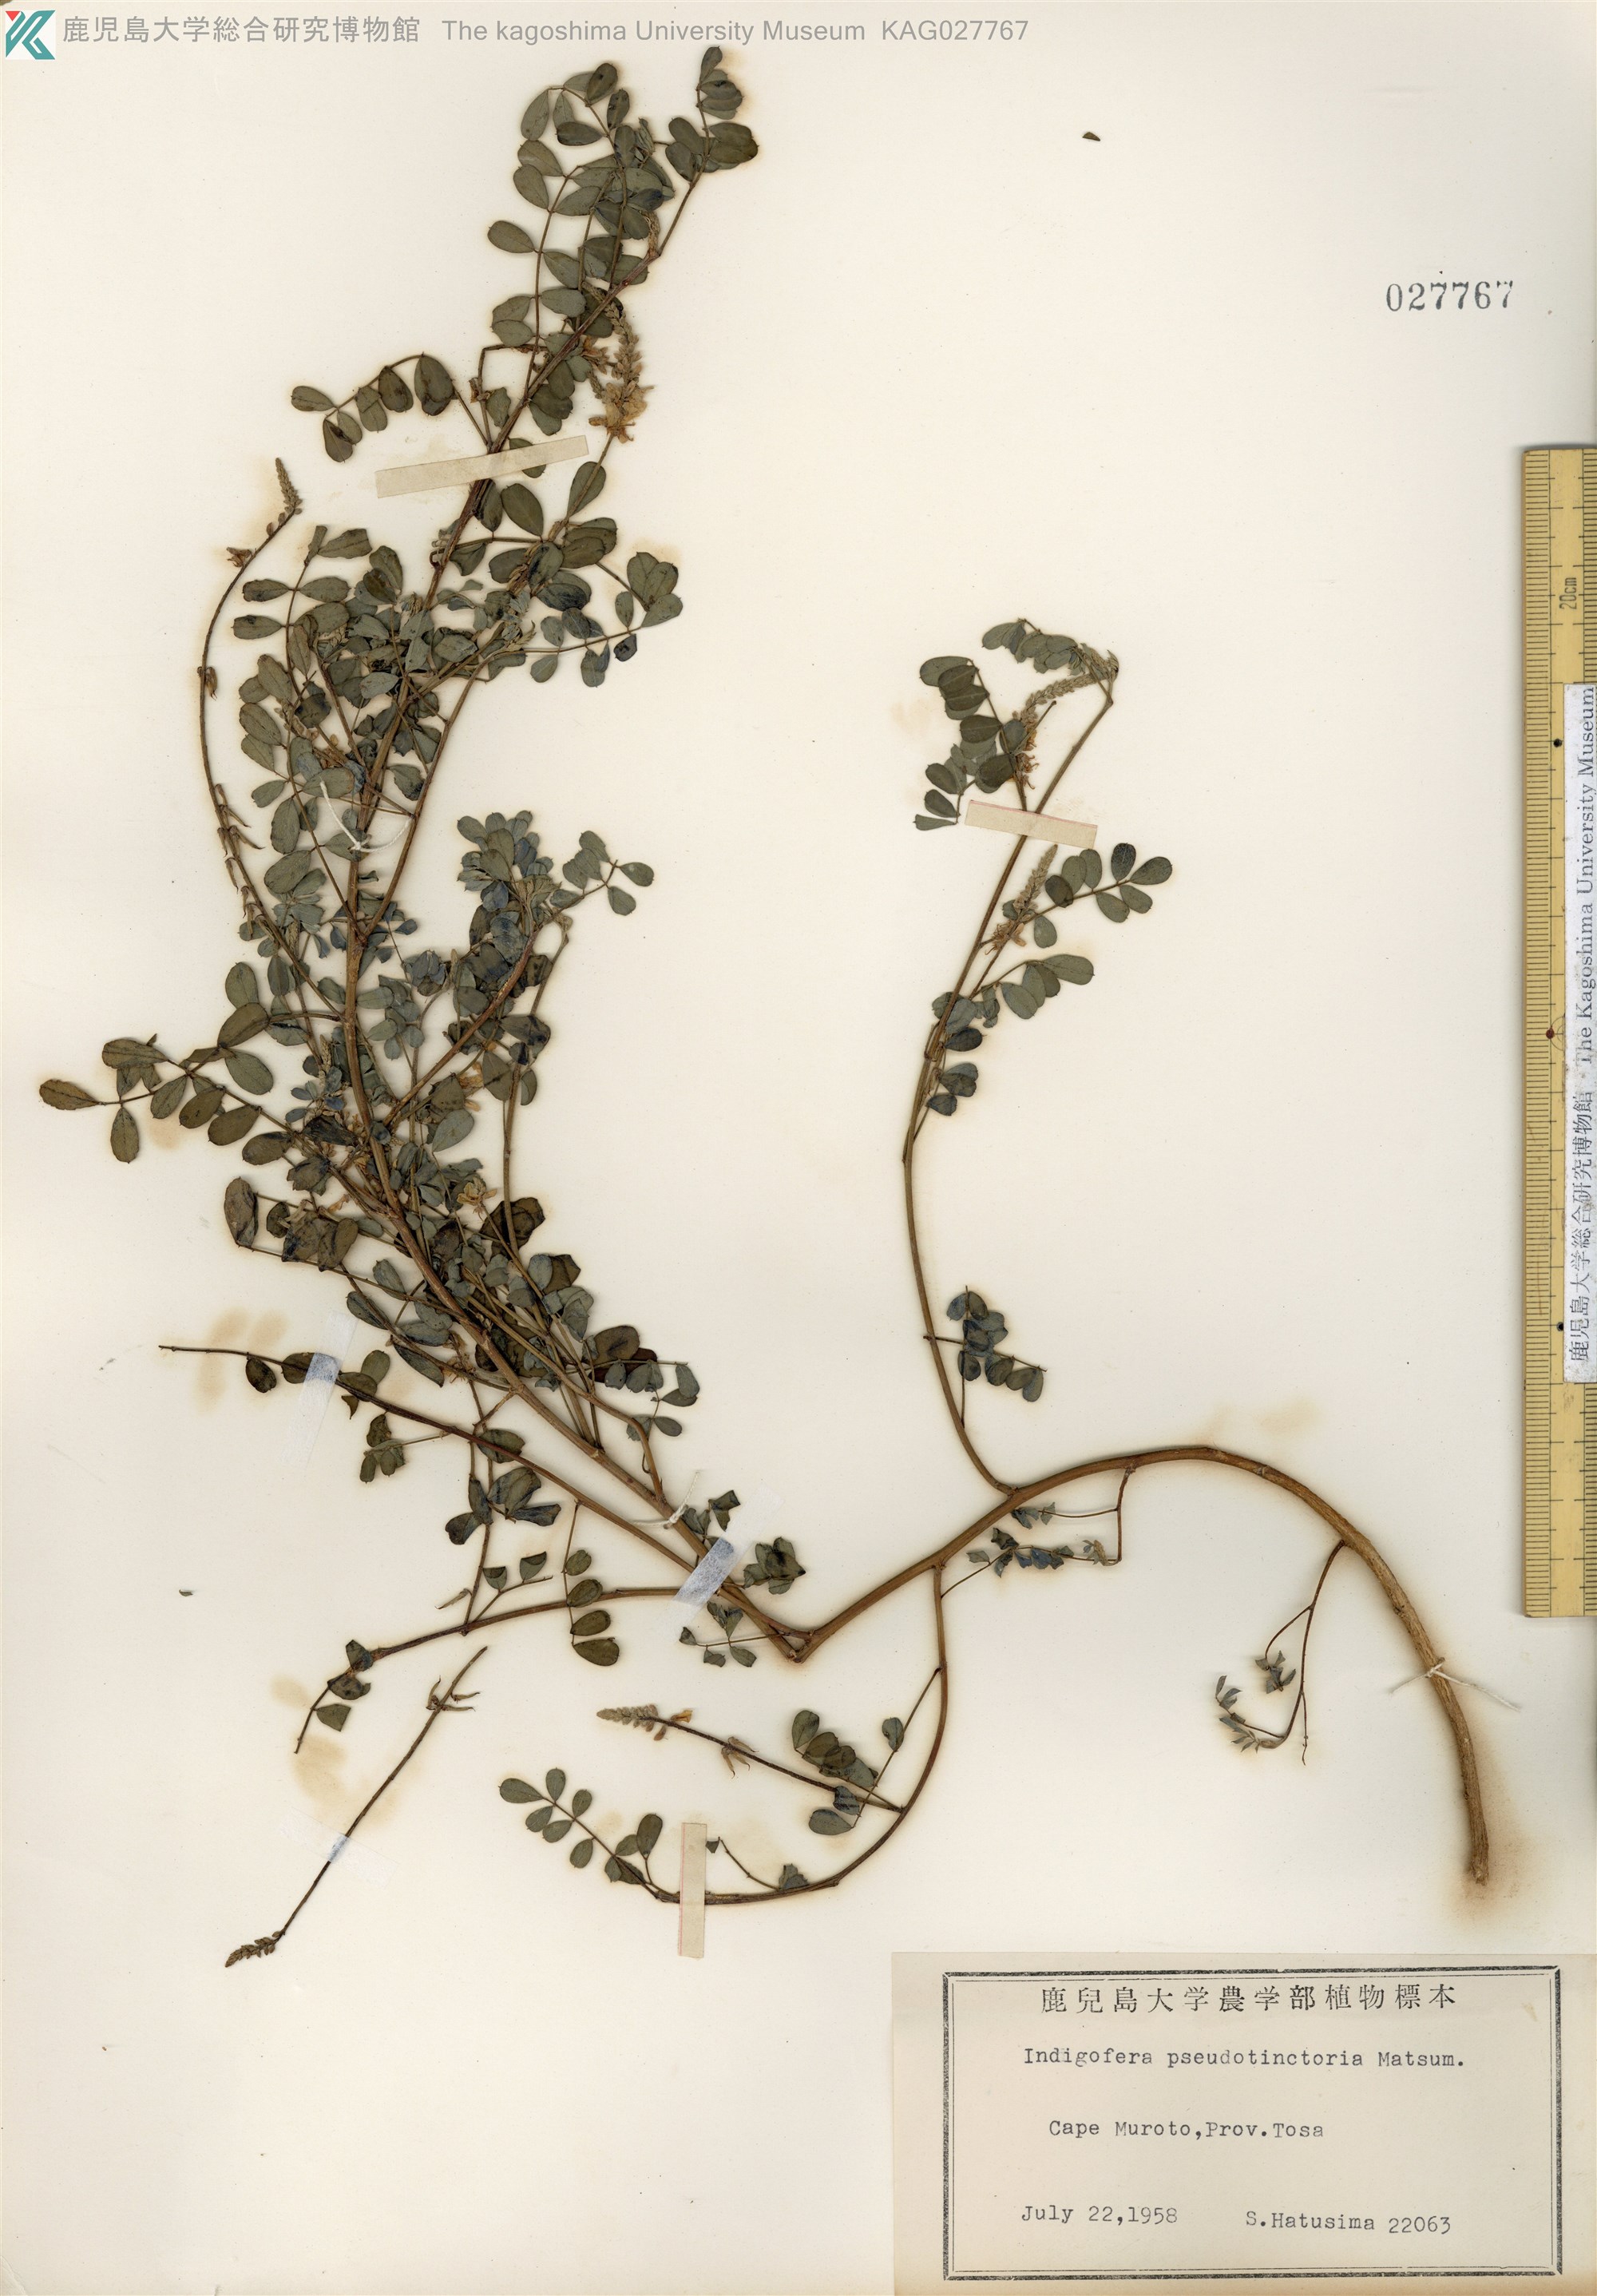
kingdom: Plantae
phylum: Tracheophyta
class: Magnoliopsida
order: Fabales
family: Fabaceae
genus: Indigofera
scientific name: Indigofera bungeana
